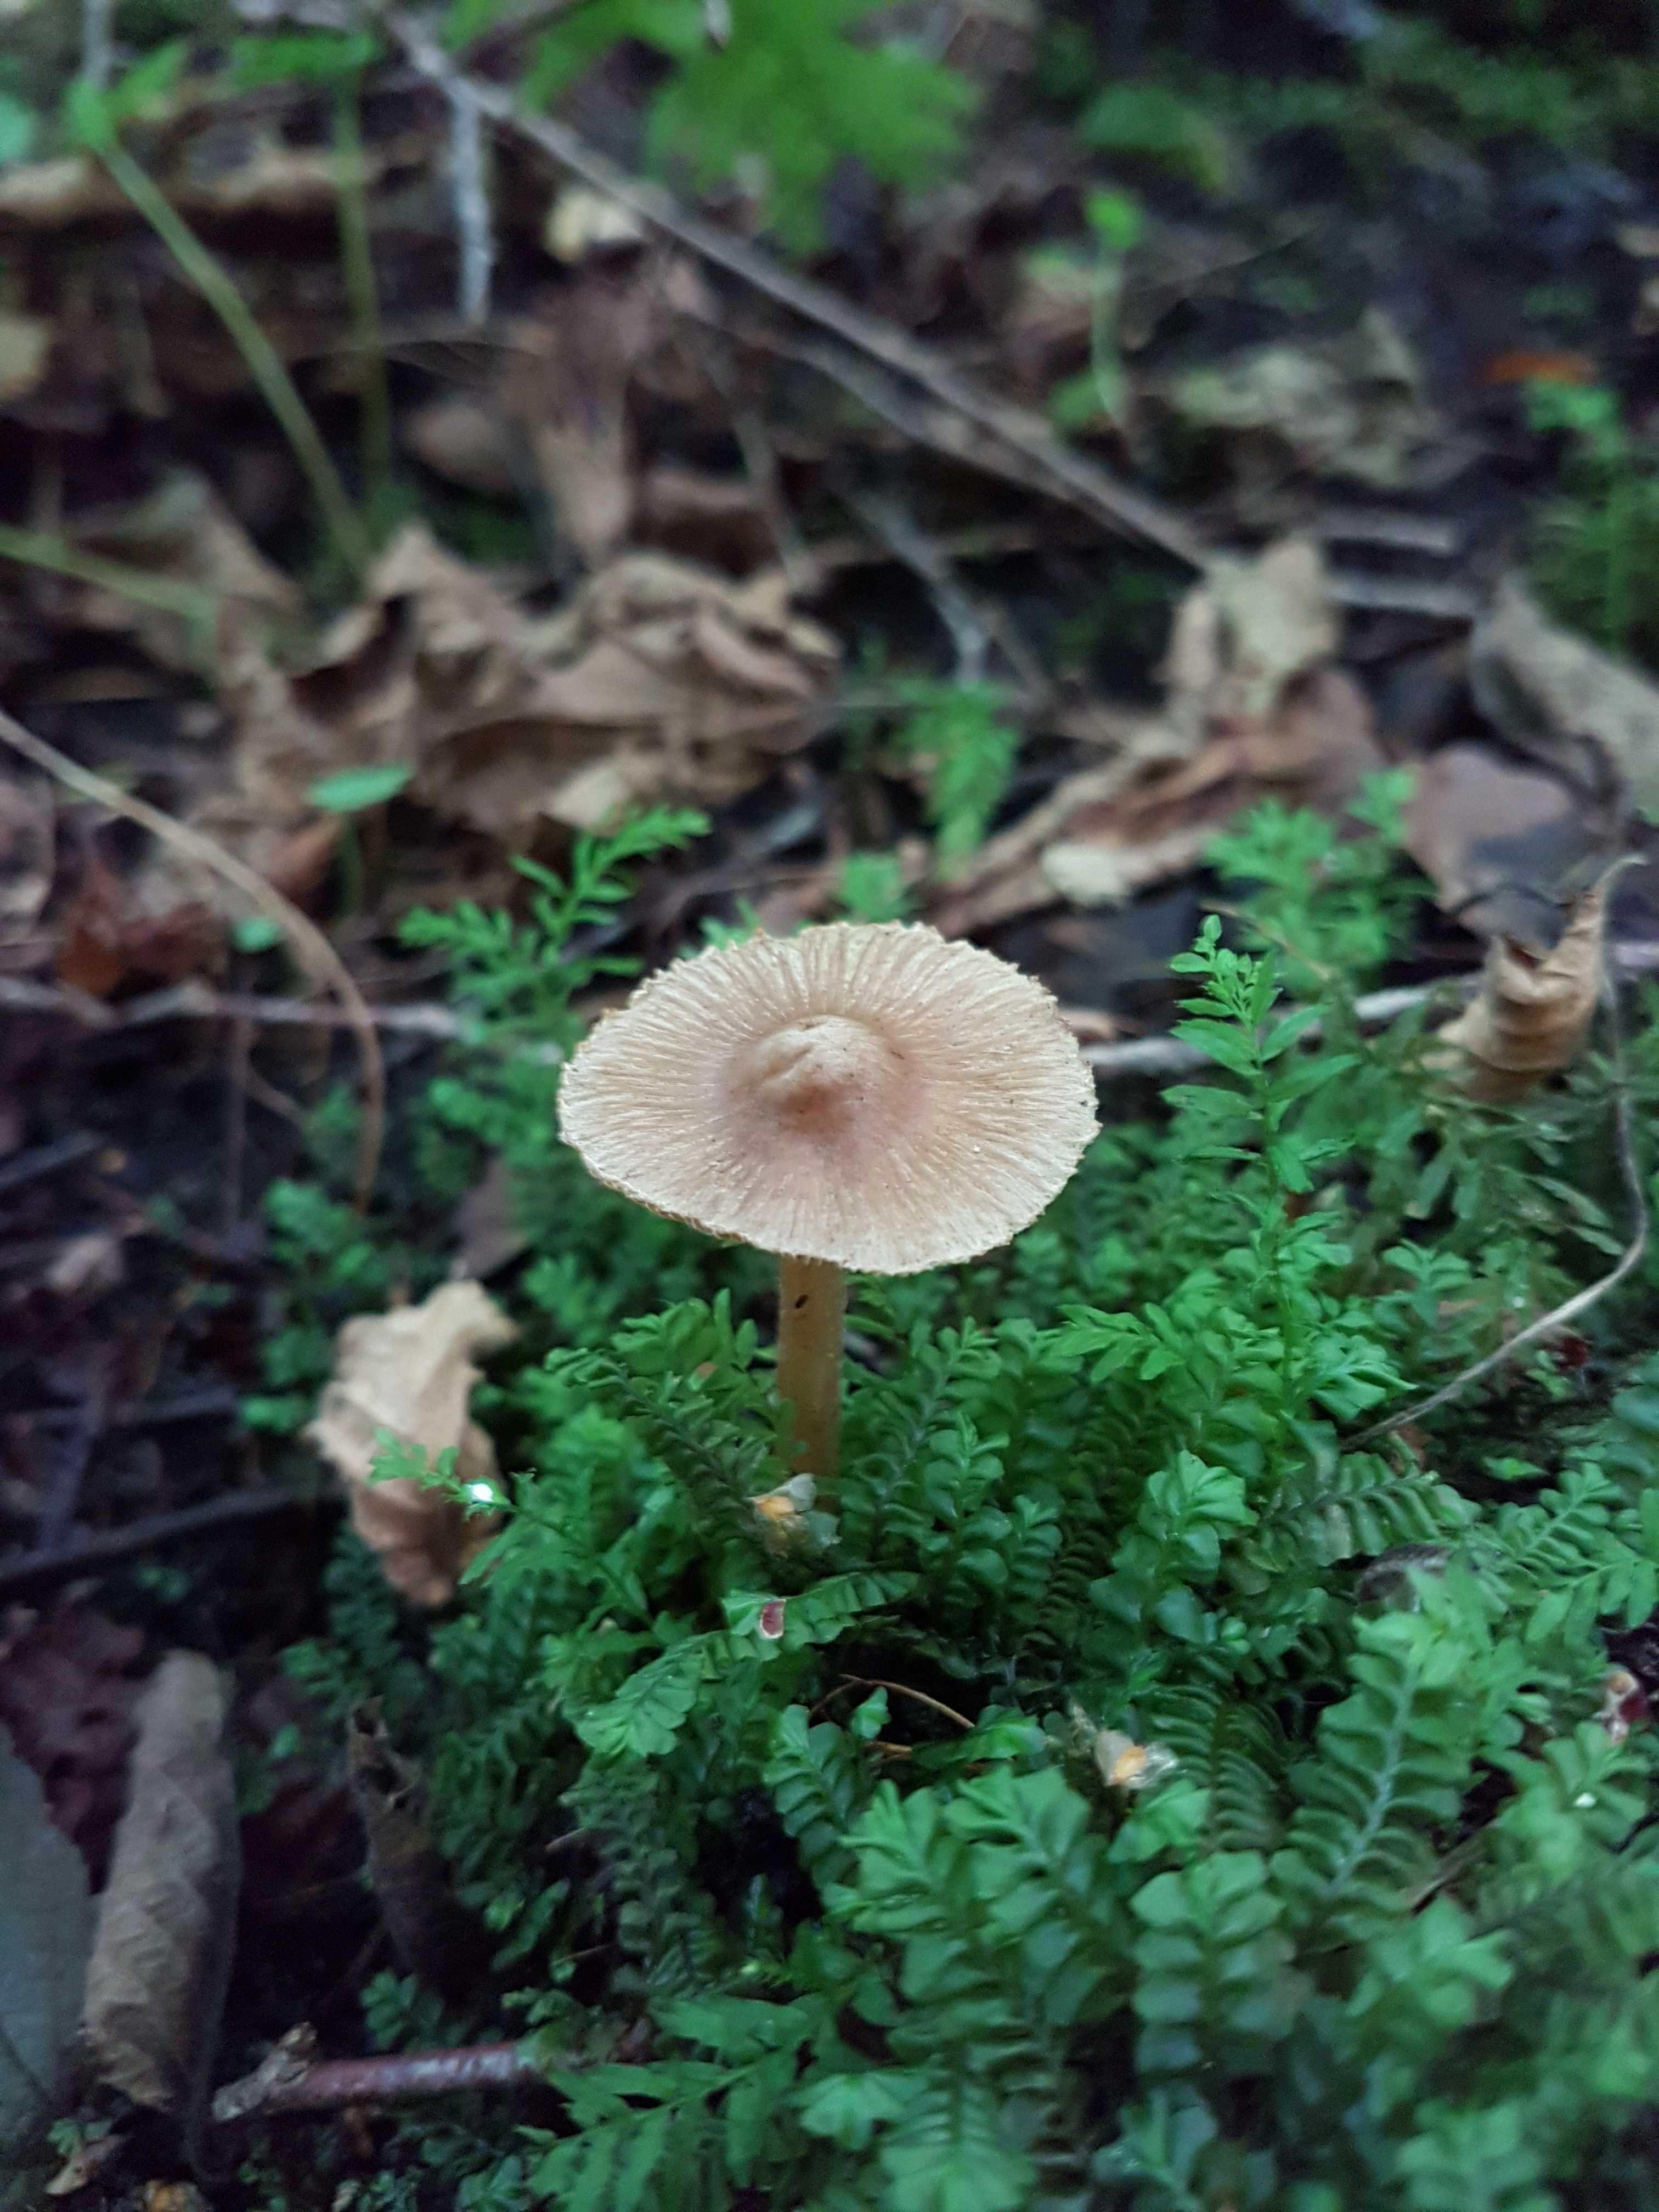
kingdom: Fungi
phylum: Basidiomycota
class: Agaricomycetes
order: Agaricales
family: Inocybaceae
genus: Inocybe
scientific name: Inocybe
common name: trævlhat
